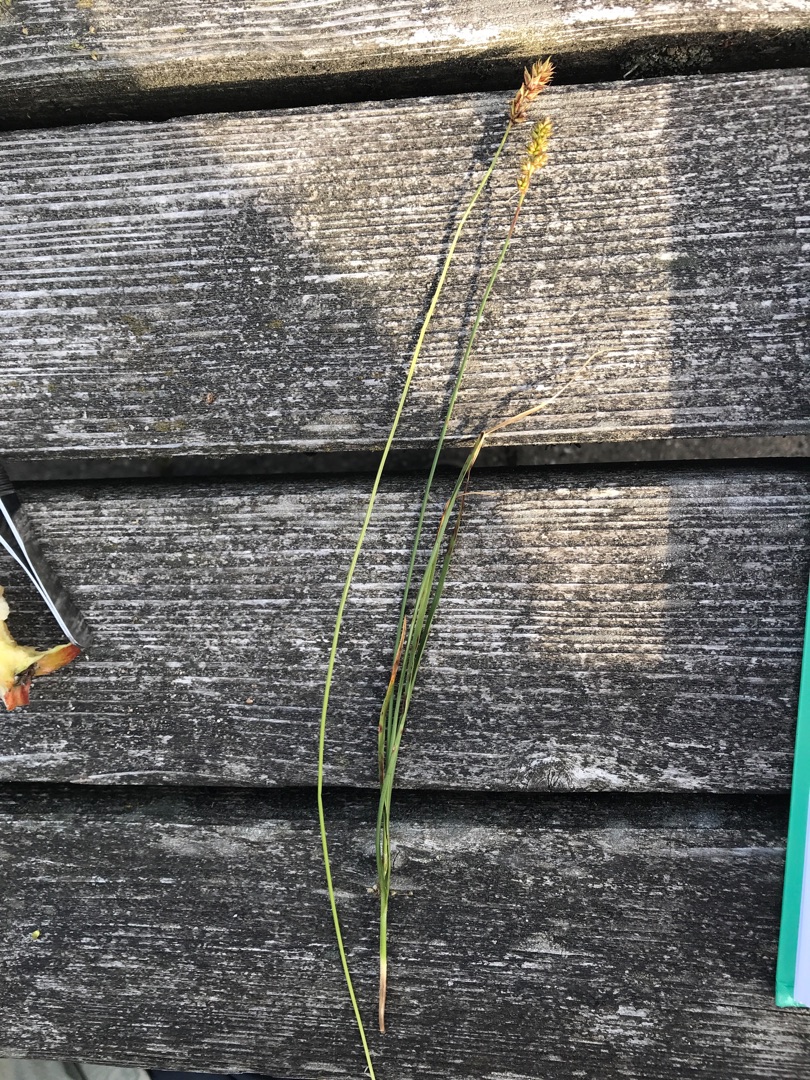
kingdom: Plantae
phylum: Tracheophyta
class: Liliopsida
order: Poales
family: Cyperaceae
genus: Carex
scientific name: Carex pairae
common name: Pigget star
